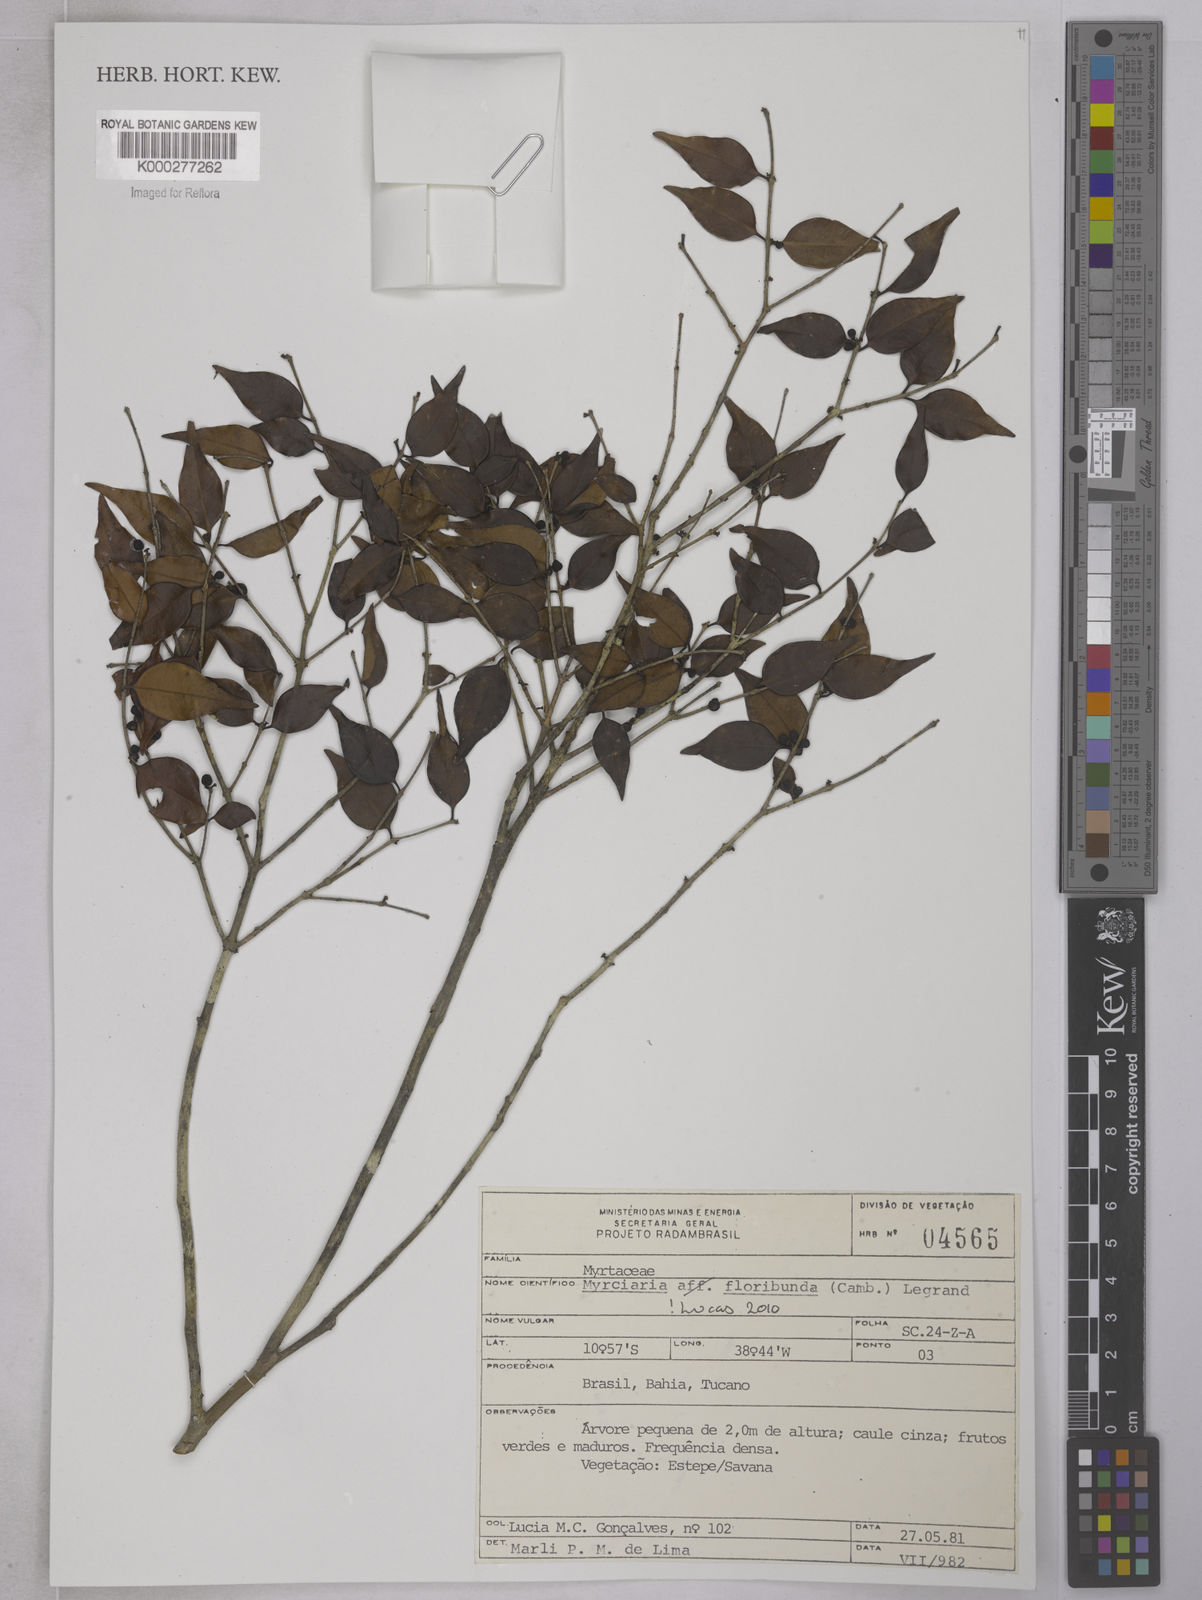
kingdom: Plantae
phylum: Tracheophyta
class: Magnoliopsida
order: Myrtales
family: Myrtaceae
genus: Myrciaria
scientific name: Myrciaria floribunda
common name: Guavaberry
